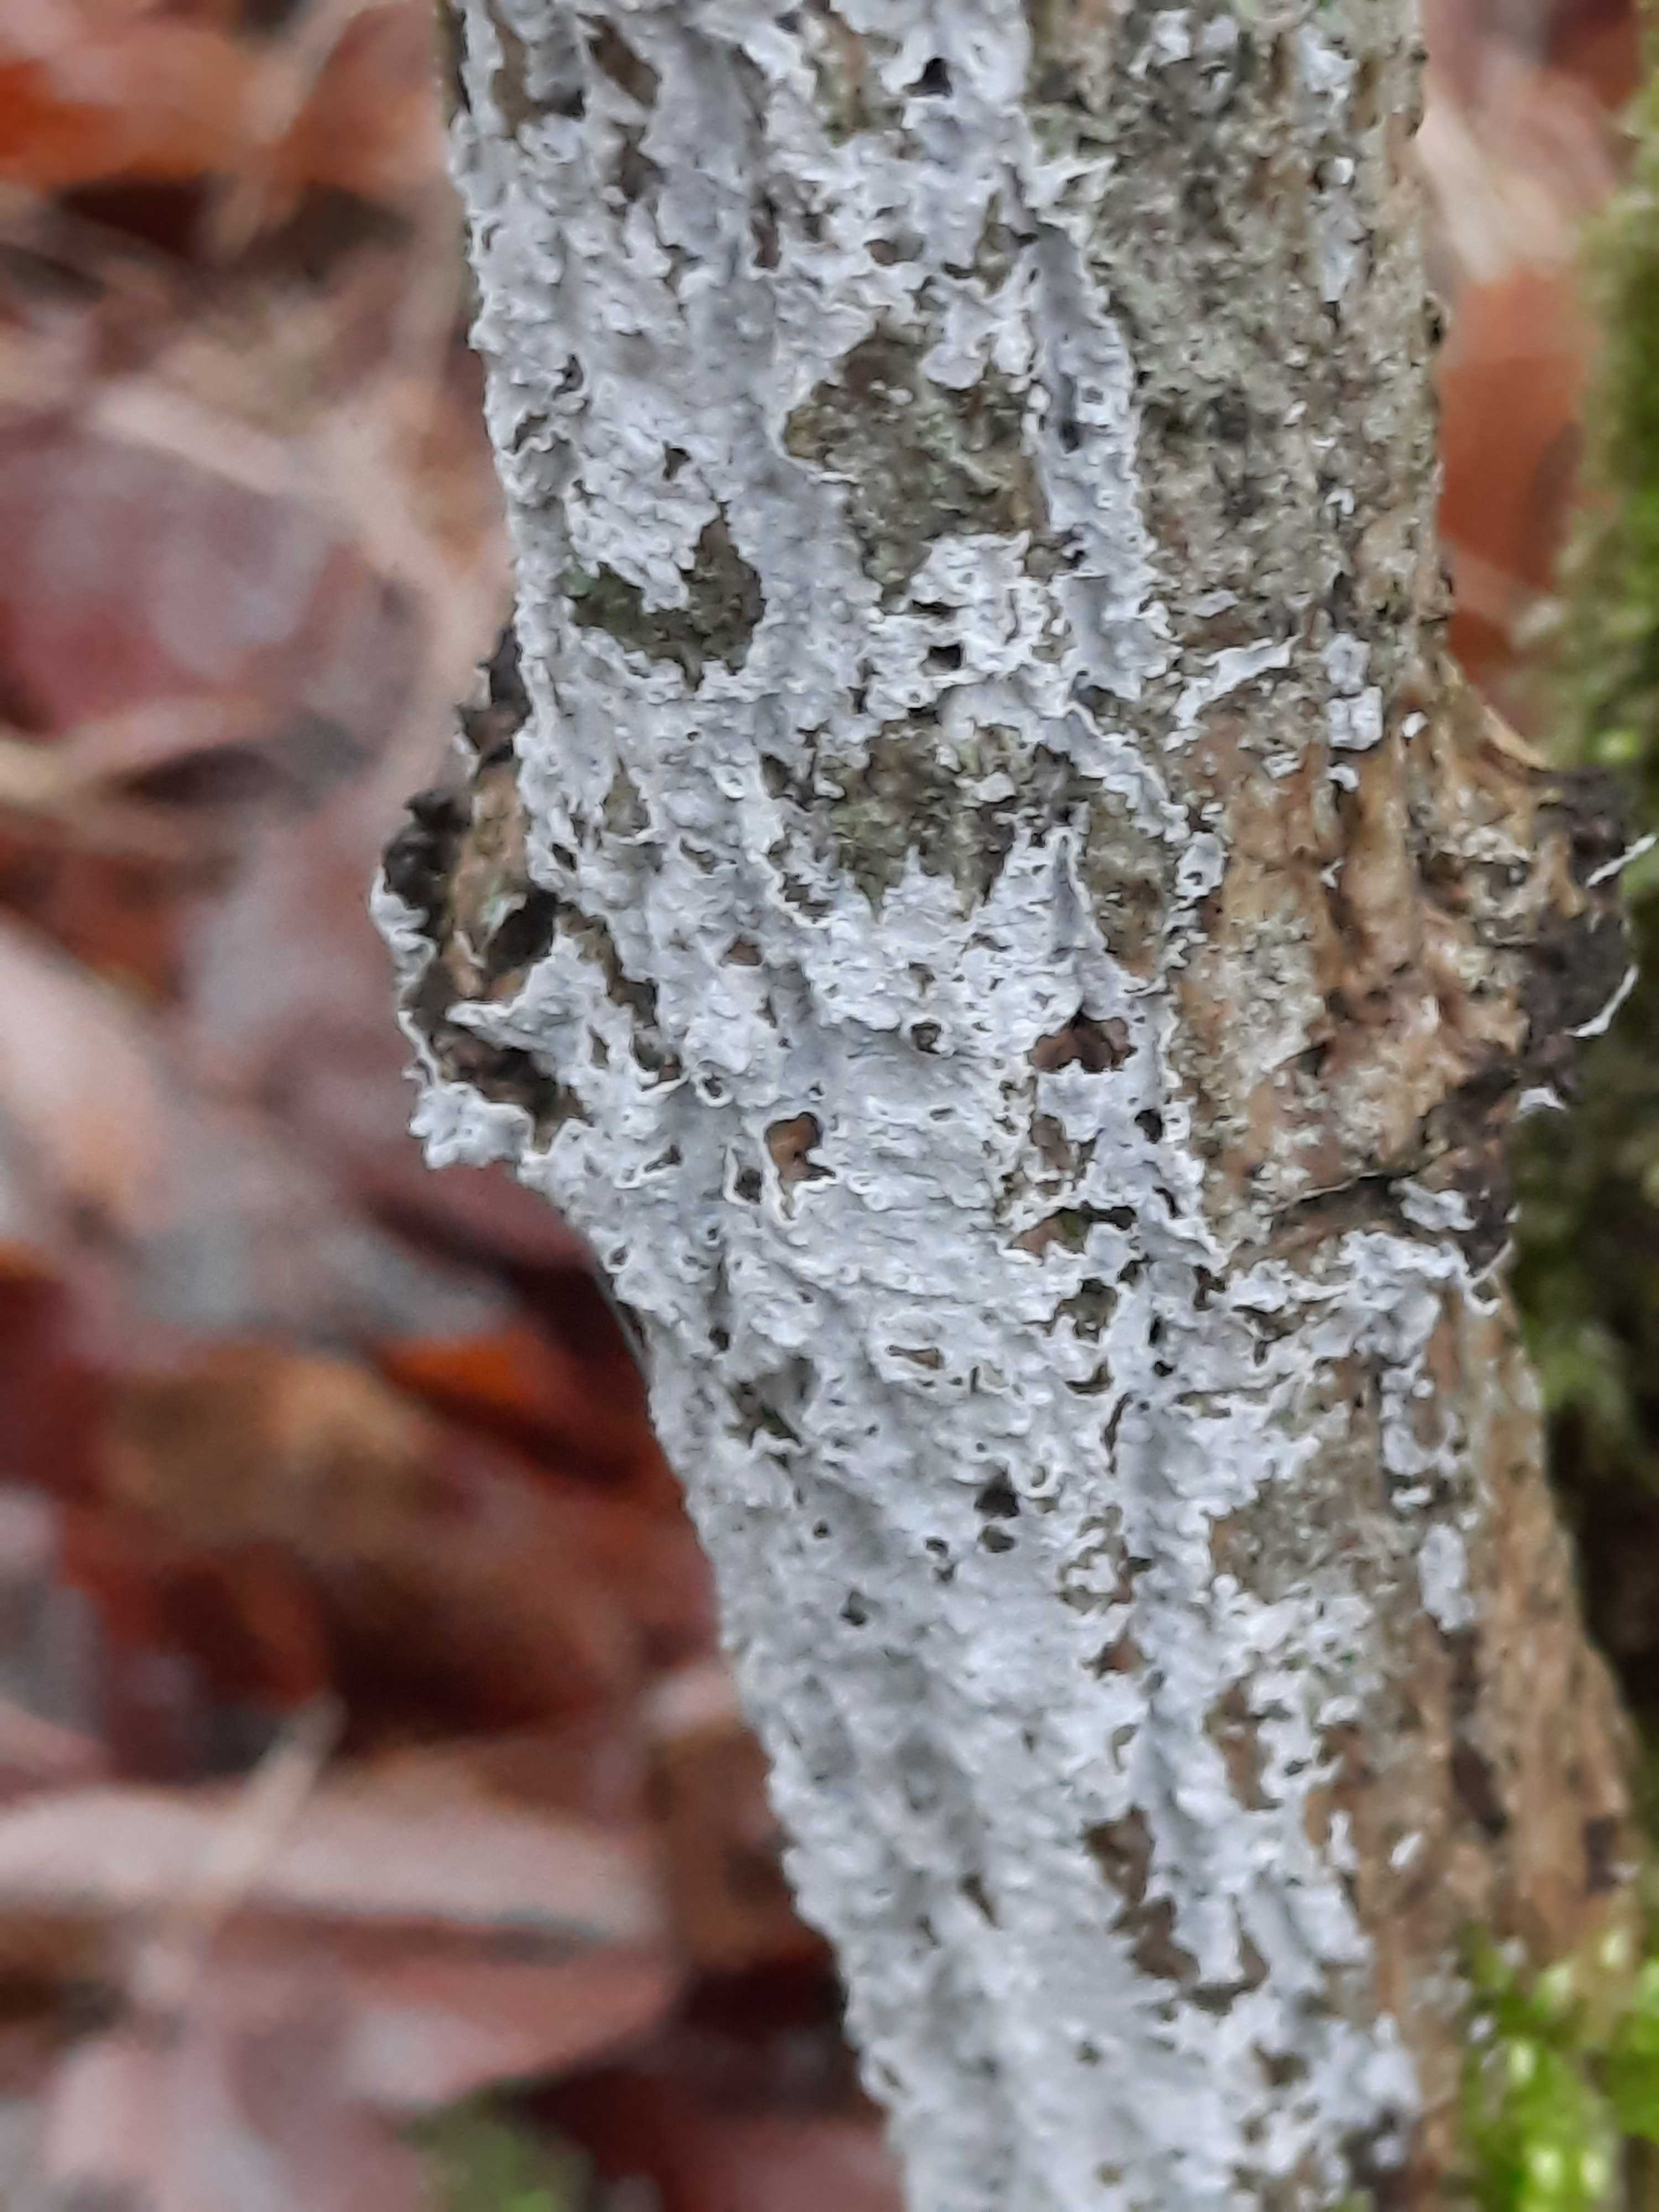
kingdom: Fungi
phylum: Basidiomycota
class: Agaricomycetes
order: Corticiales
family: Corticiaceae
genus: Lyomyces
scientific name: Lyomyces sambuci
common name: almindelig hyldehinde
